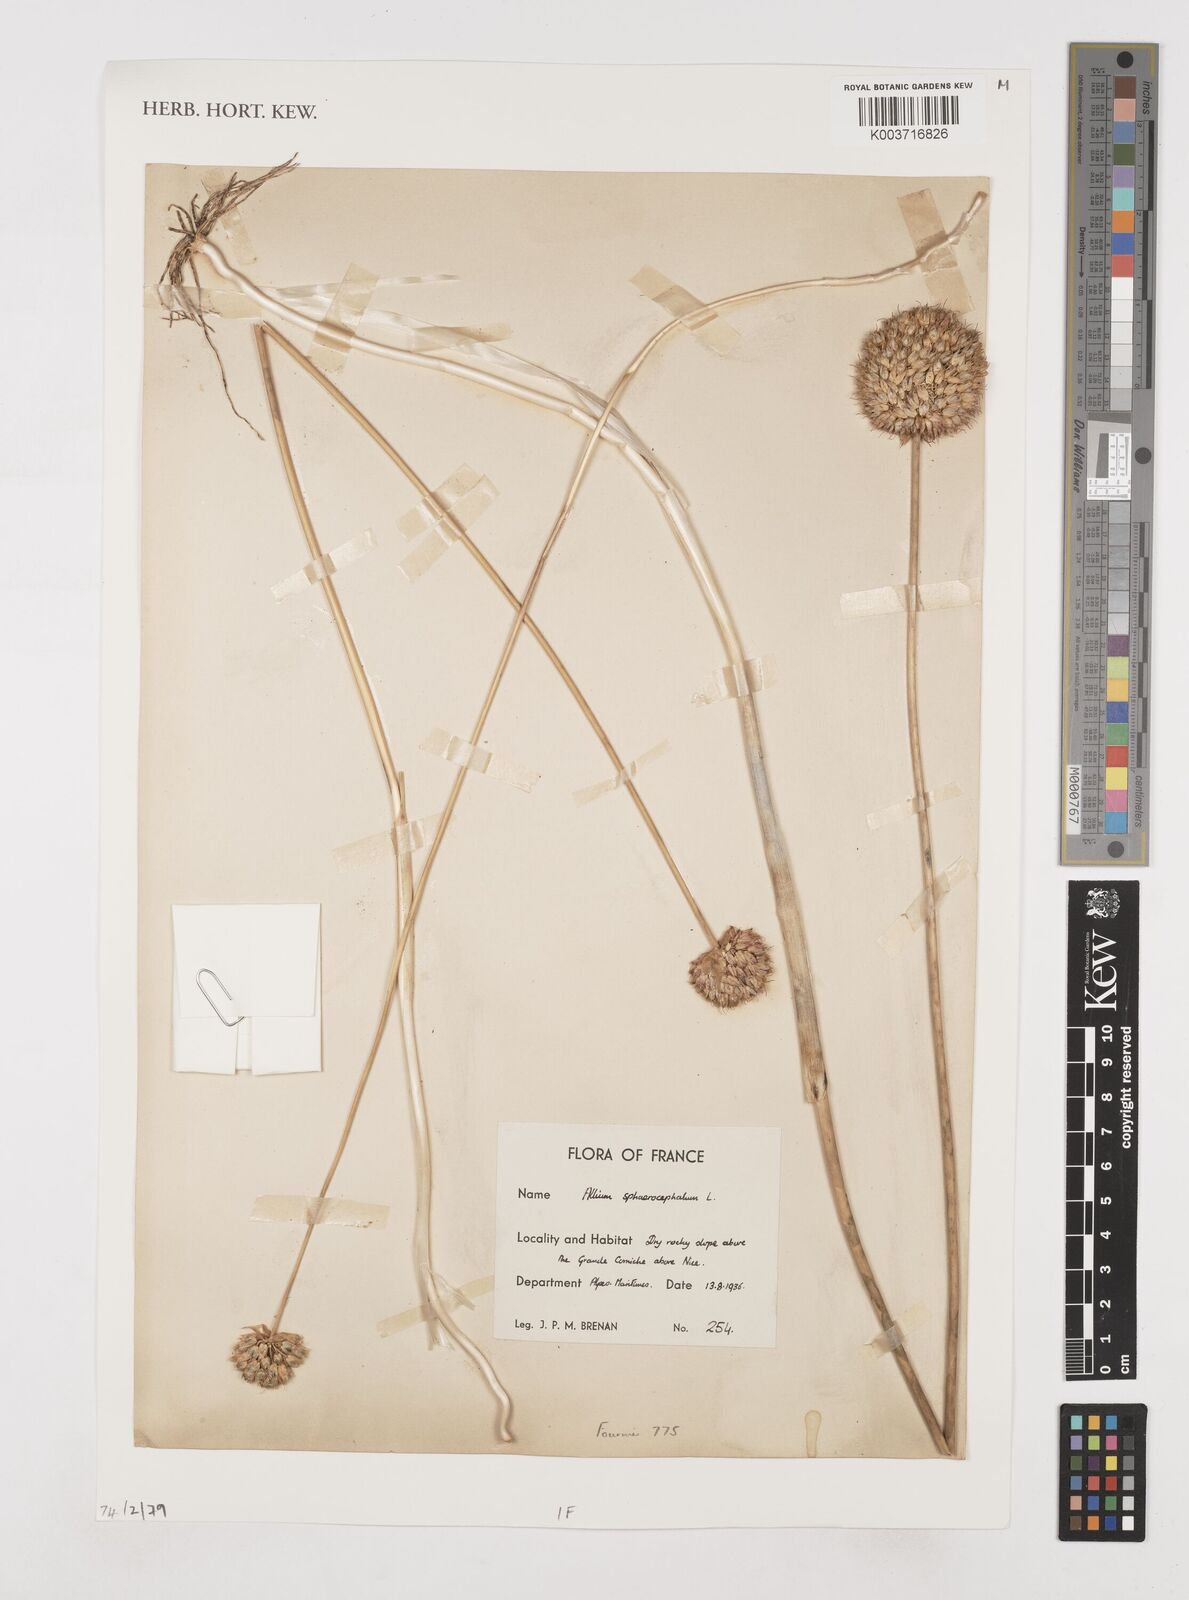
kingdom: Plantae
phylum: Tracheophyta
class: Liliopsida
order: Asparagales
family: Amaryllidaceae
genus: Allium
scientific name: Allium sphaerocephalon
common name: Round-headed leek
